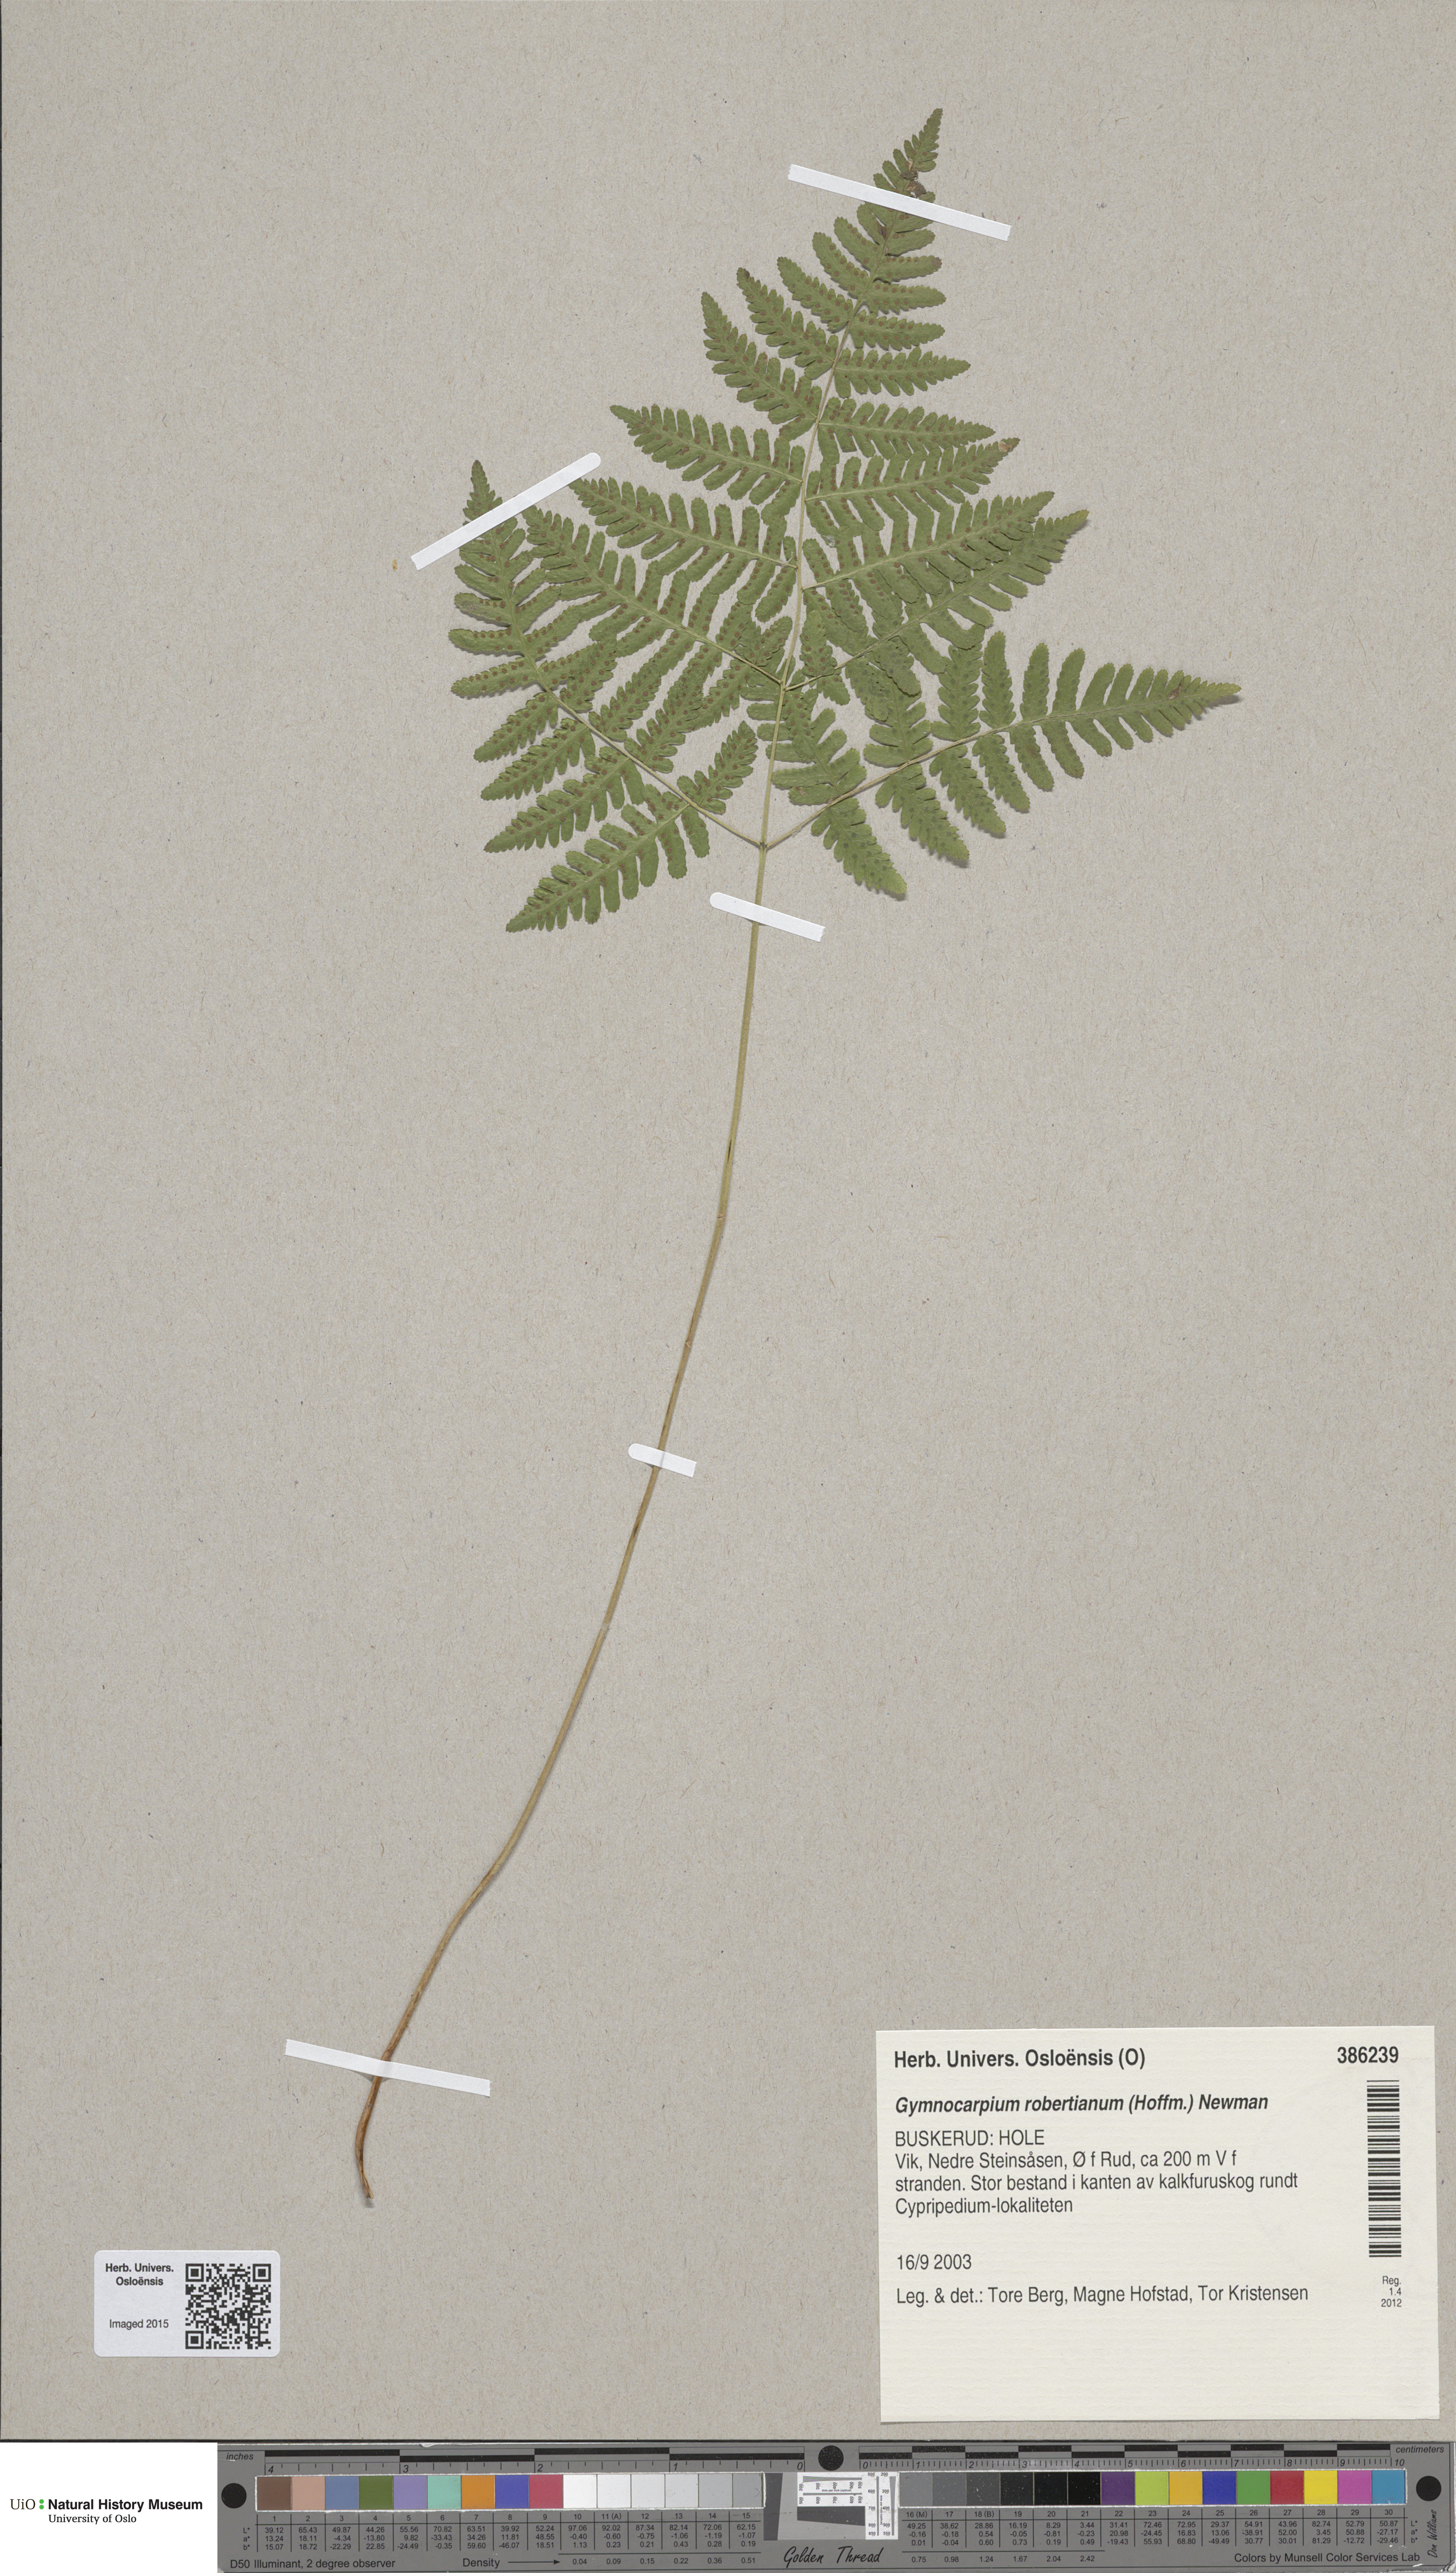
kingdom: Plantae
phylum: Tracheophyta
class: Polypodiopsida
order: Polypodiales
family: Cystopteridaceae
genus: Gymnocarpium
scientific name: Gymnocarpium robertianum
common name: Limestone fern
